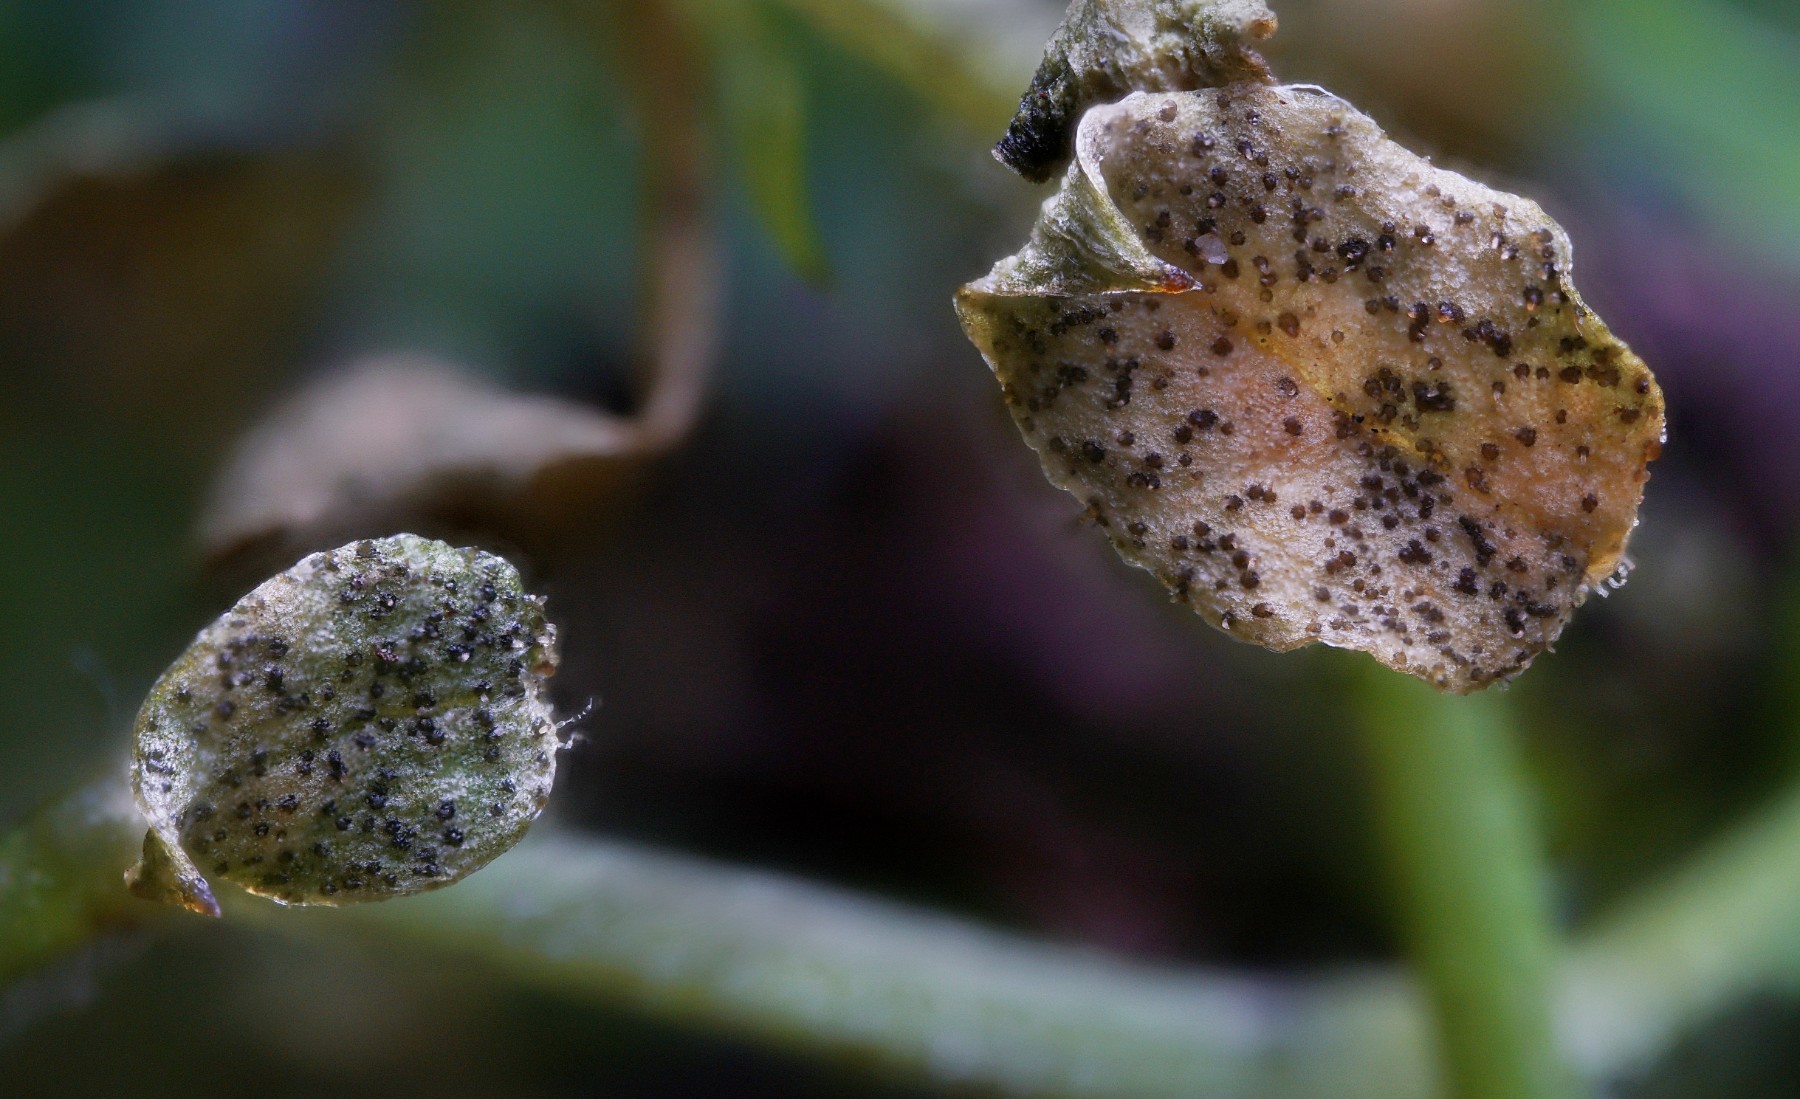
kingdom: Fungi
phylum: Ascomycota
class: Dothideomycetes
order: Mycosphaerellales
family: Mycosphaerellaceae
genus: Septoria
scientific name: Septoria stellariae
